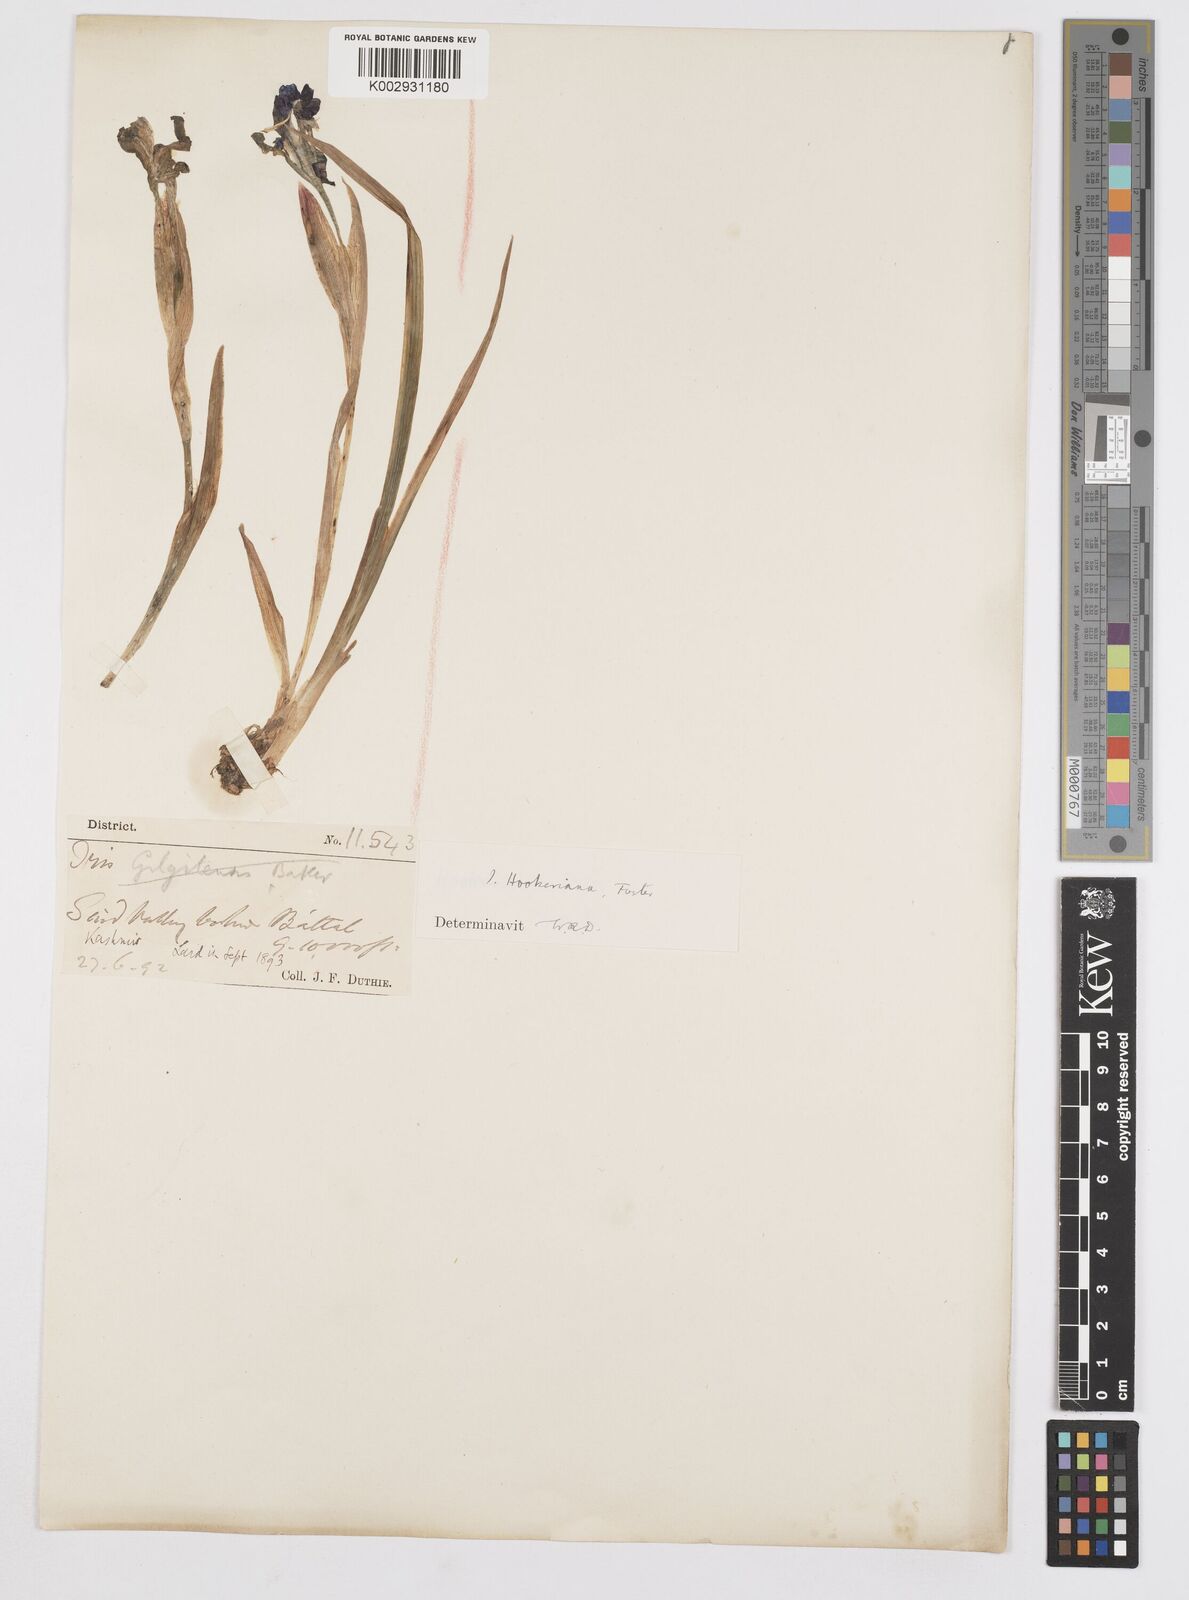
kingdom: Plantae
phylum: Tracheophyta
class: Liliopsida
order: Asparagales
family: Iridaceae
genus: Iris
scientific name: Iris hookeriana
